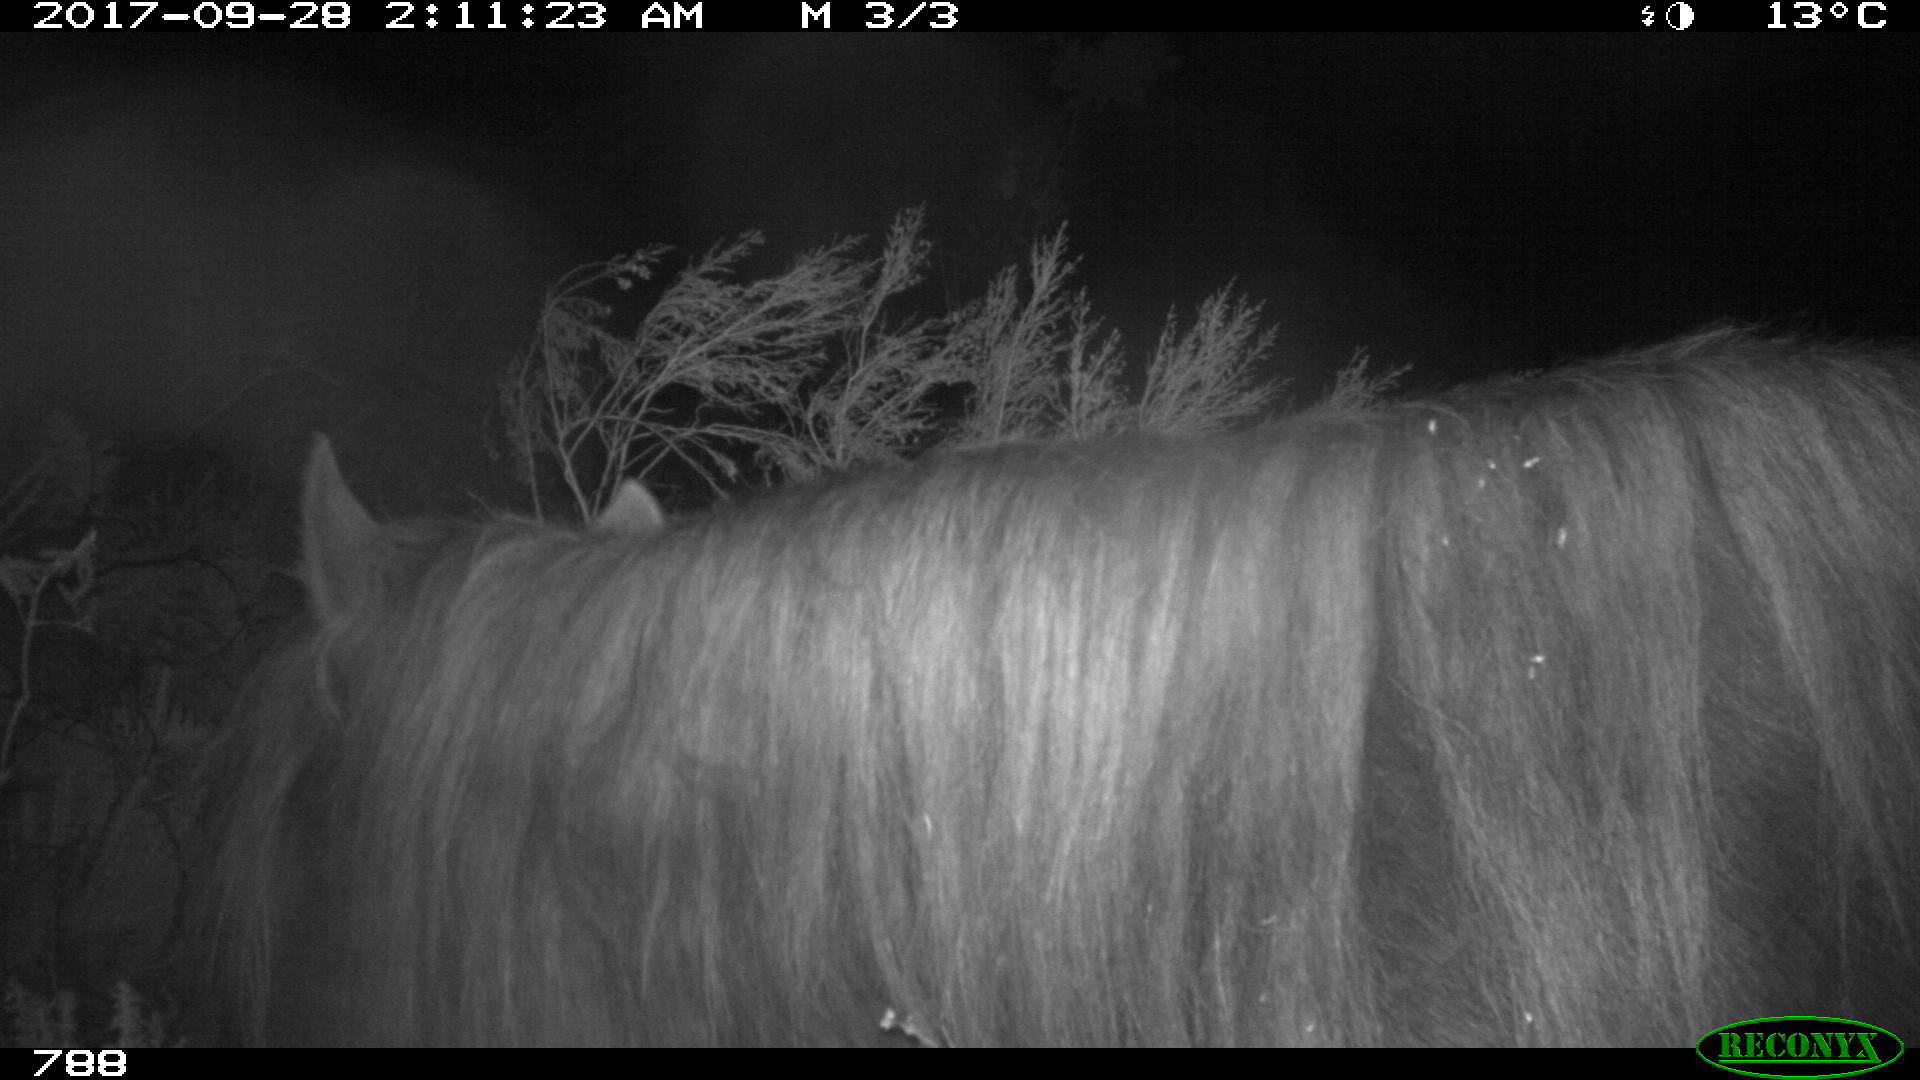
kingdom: Animalia
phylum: Chordata
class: Mammalia
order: Perissodactyla
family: Equidae
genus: Equus
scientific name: Equus caballus
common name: Horse
